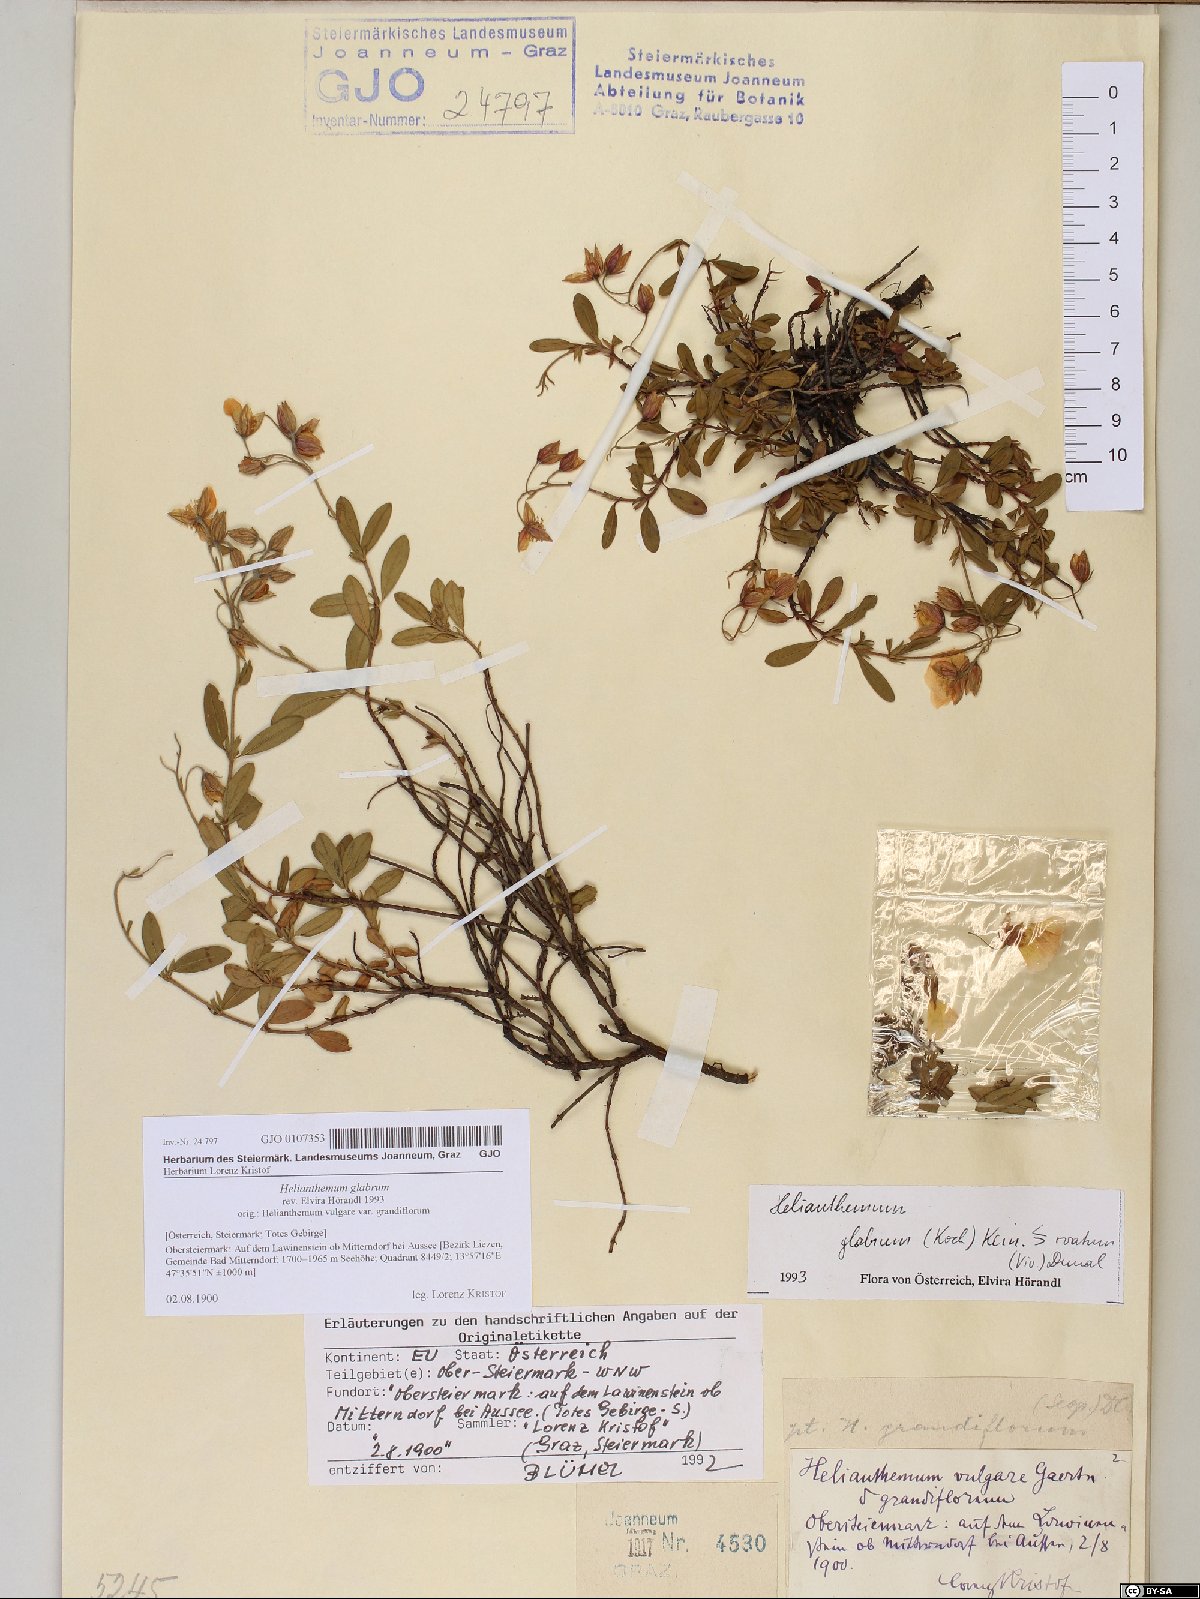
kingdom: Plantae
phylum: Tracheophyta
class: Magnoliopsida
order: Malvales
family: Cistaceae
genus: Helianthemum
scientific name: Helianthemum nummularium
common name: Common rock-rose
